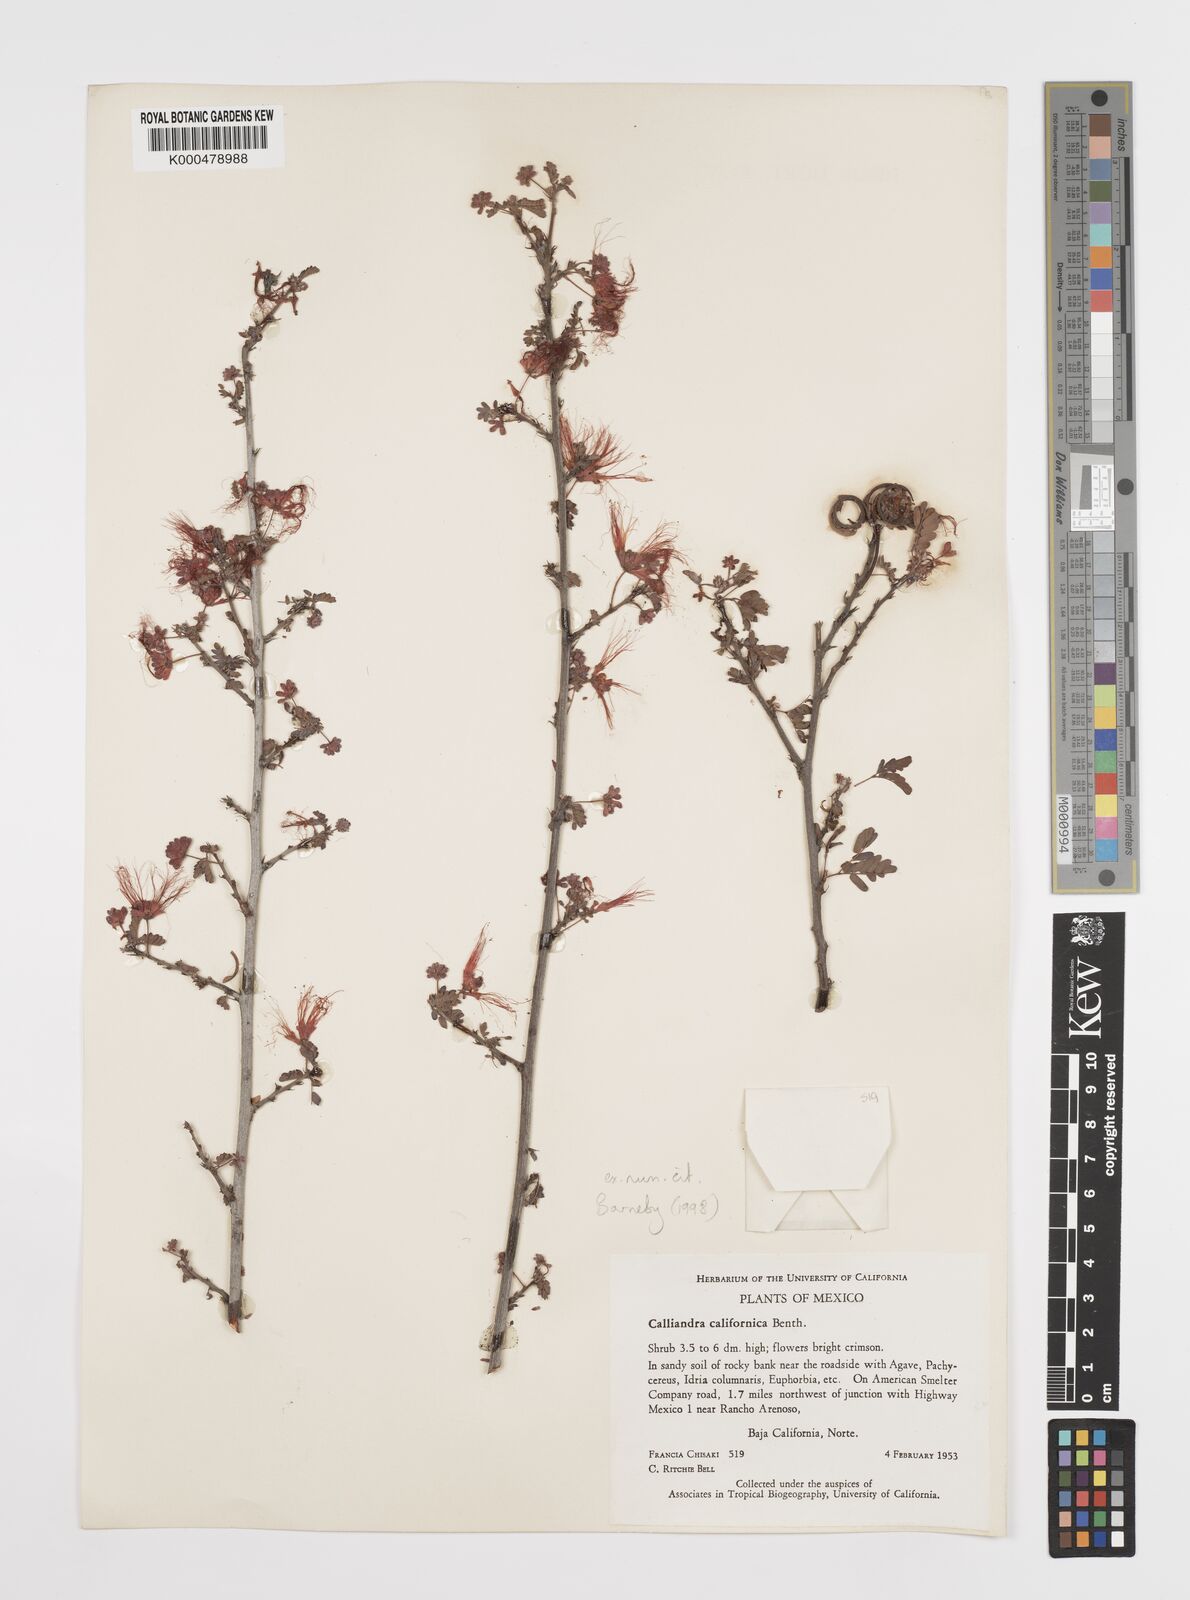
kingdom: Plantae
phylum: Tracheophyta
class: Magnoliopsida
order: Fabales
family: Fabaceae
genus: Calliandra
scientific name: Calliandra californica
